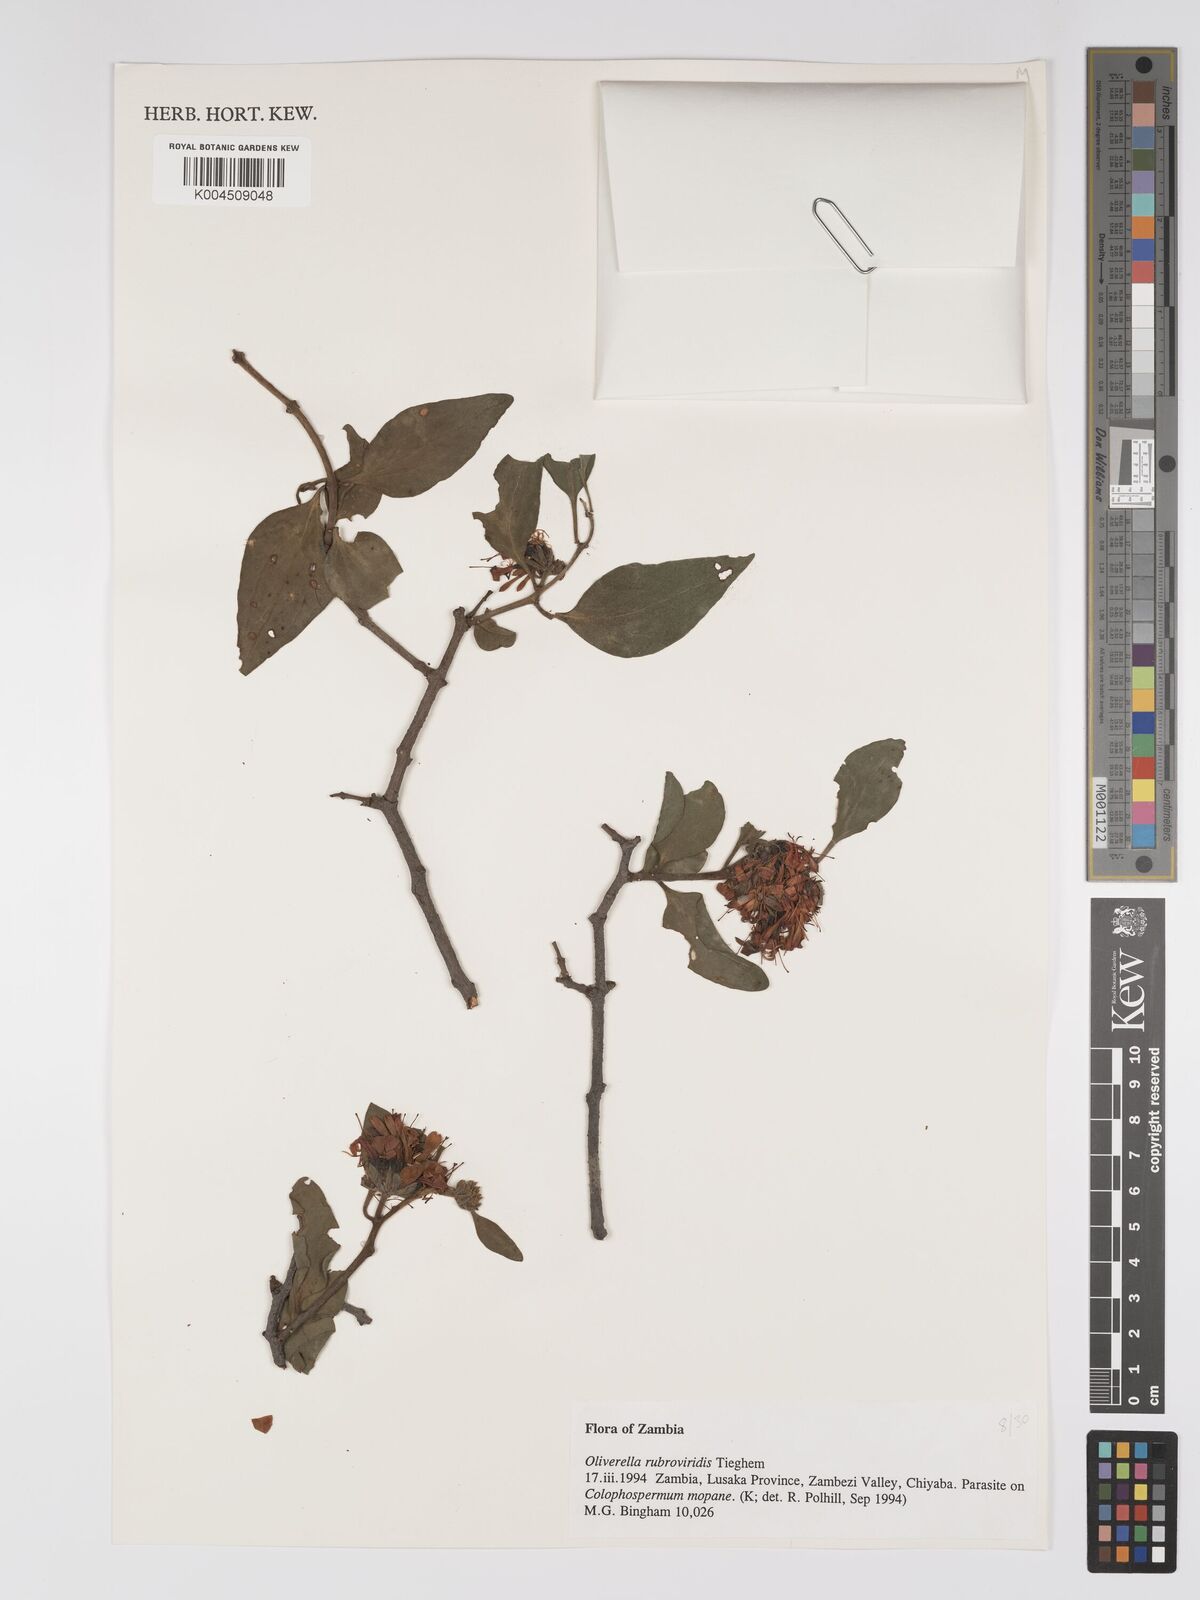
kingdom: Plantae
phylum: Tracheophyta
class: Magnoliopsida
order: Santalales
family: Loranthaceae
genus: Oliverella
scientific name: Oliverella rubroviridis
